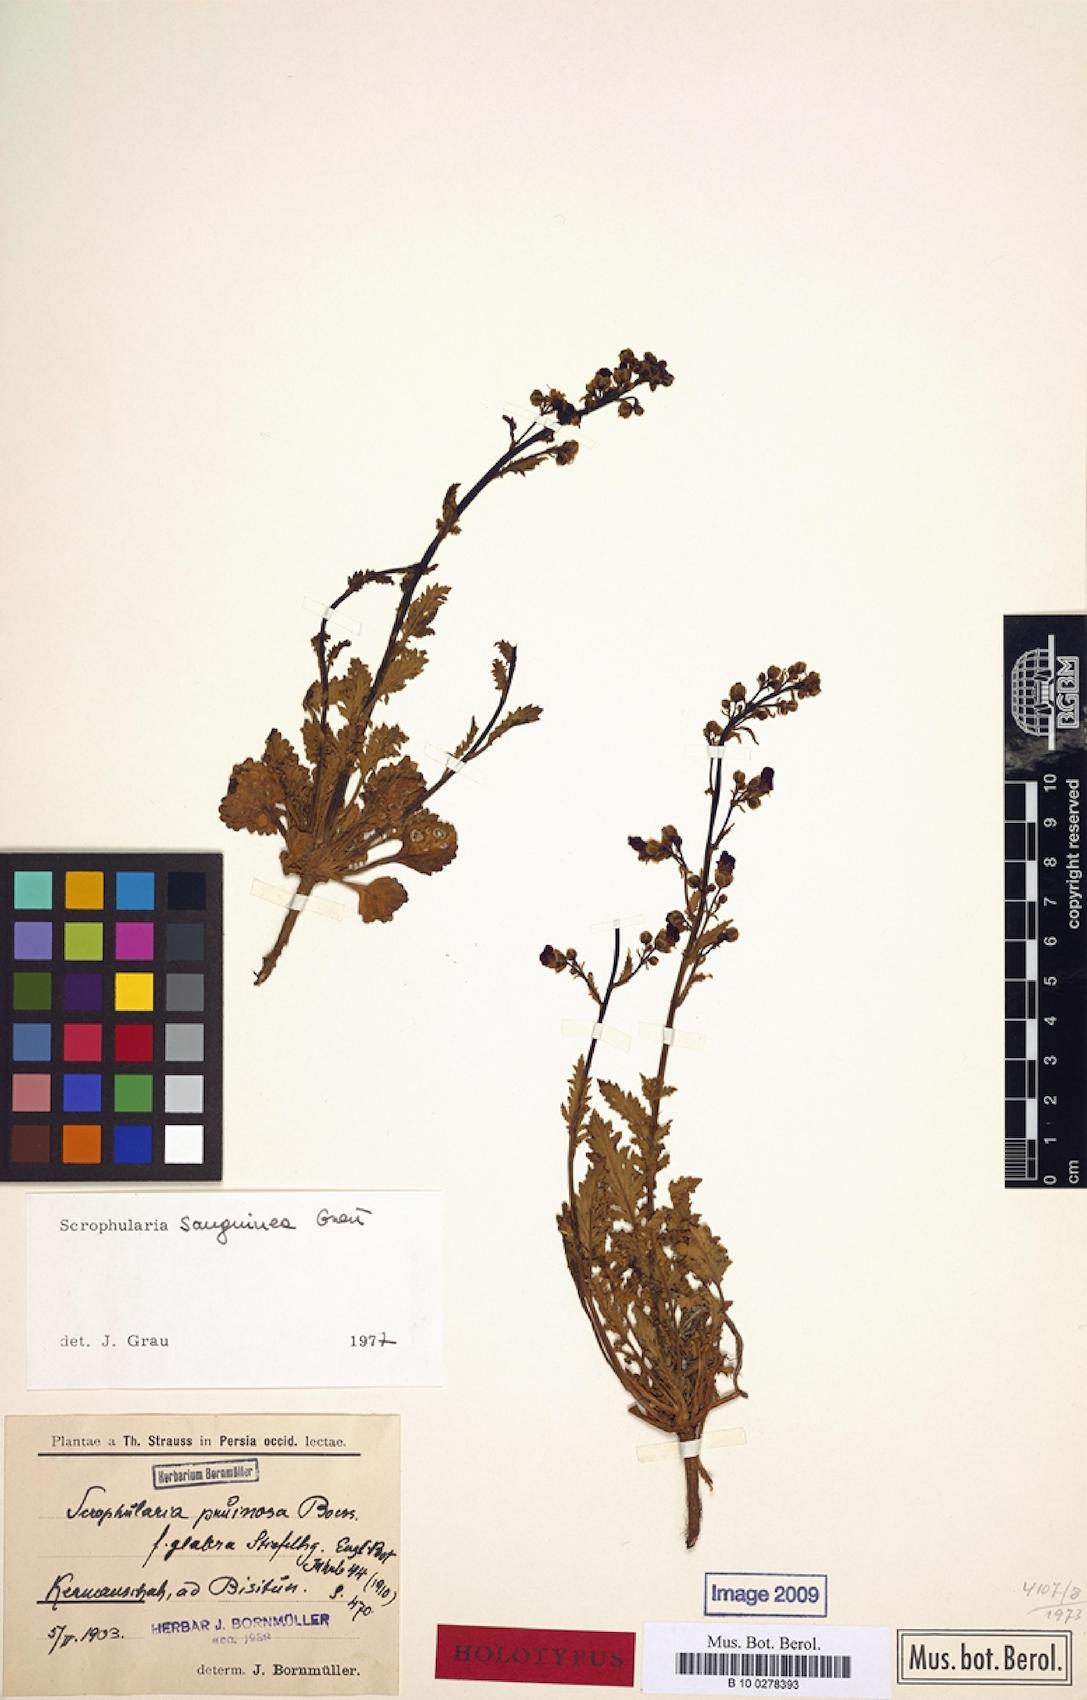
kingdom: Plantae
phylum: Tracheophyta
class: Magnoliopsida
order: Lamiales
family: Scrophulariaceae
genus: Scrophularia
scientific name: Scrophularia sanguinea
